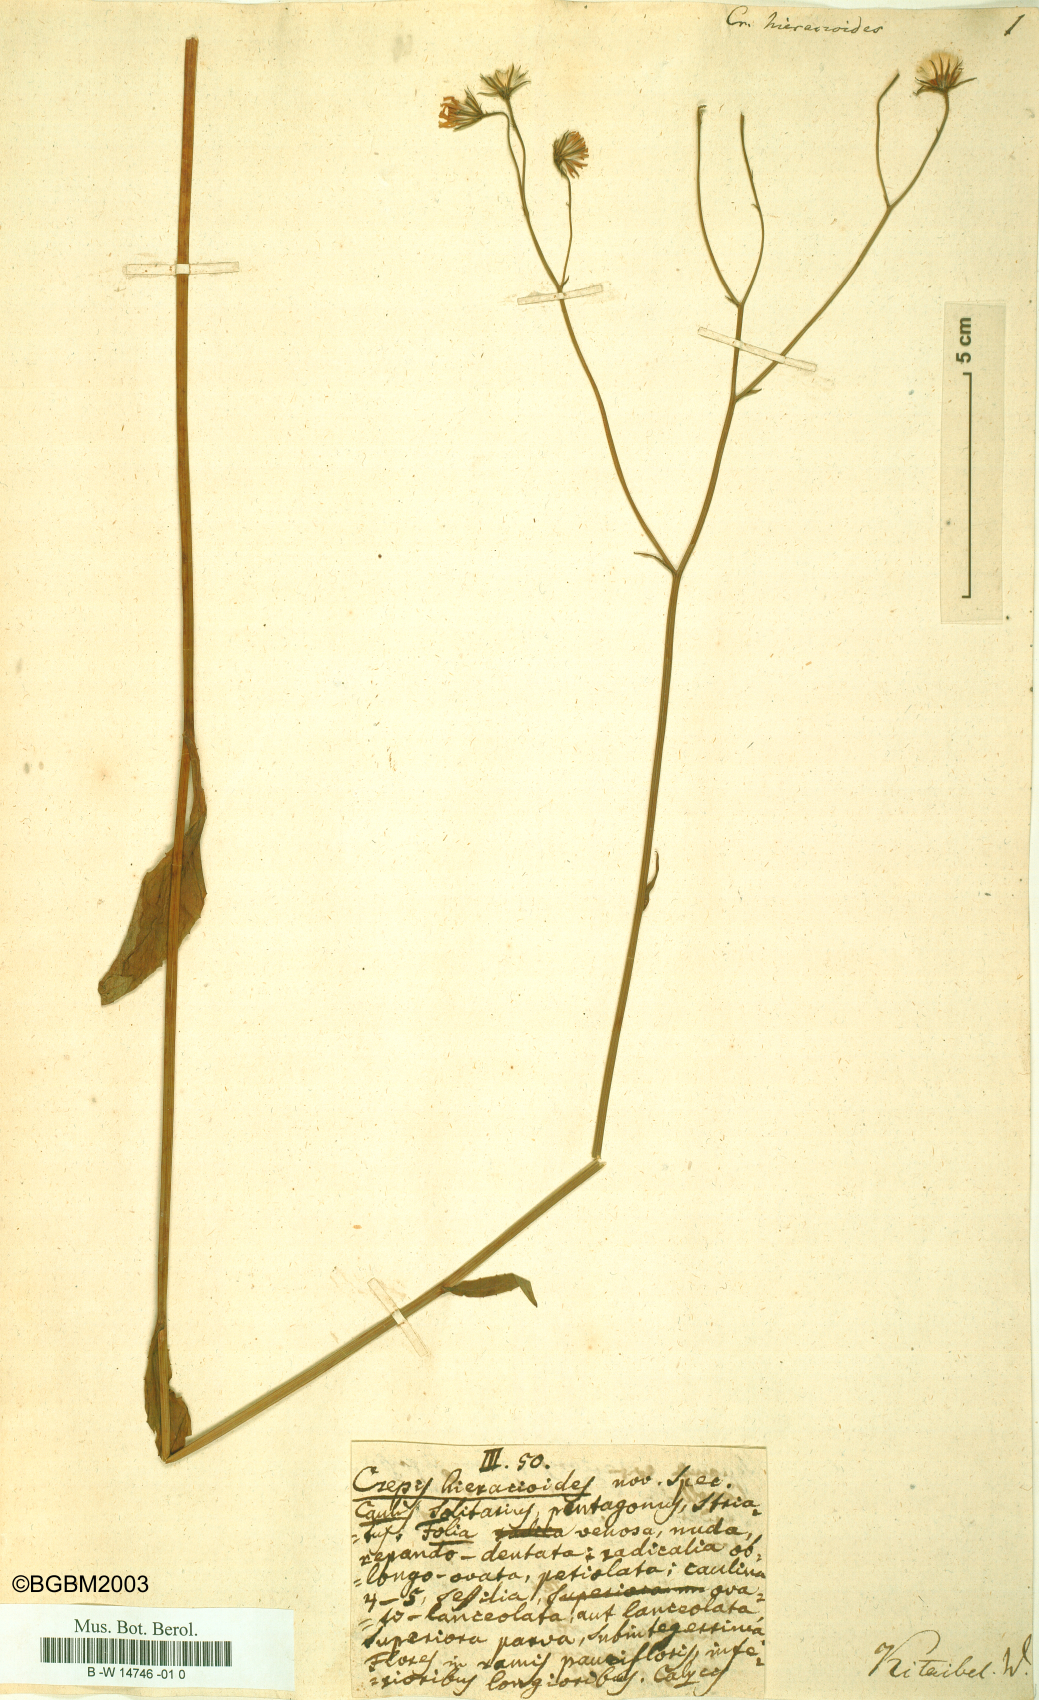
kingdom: Plantae
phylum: Tracheophyta
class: Magnoliopsida
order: Asterales
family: Asteraceae
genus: Crepis
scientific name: Crepis hieracioides
